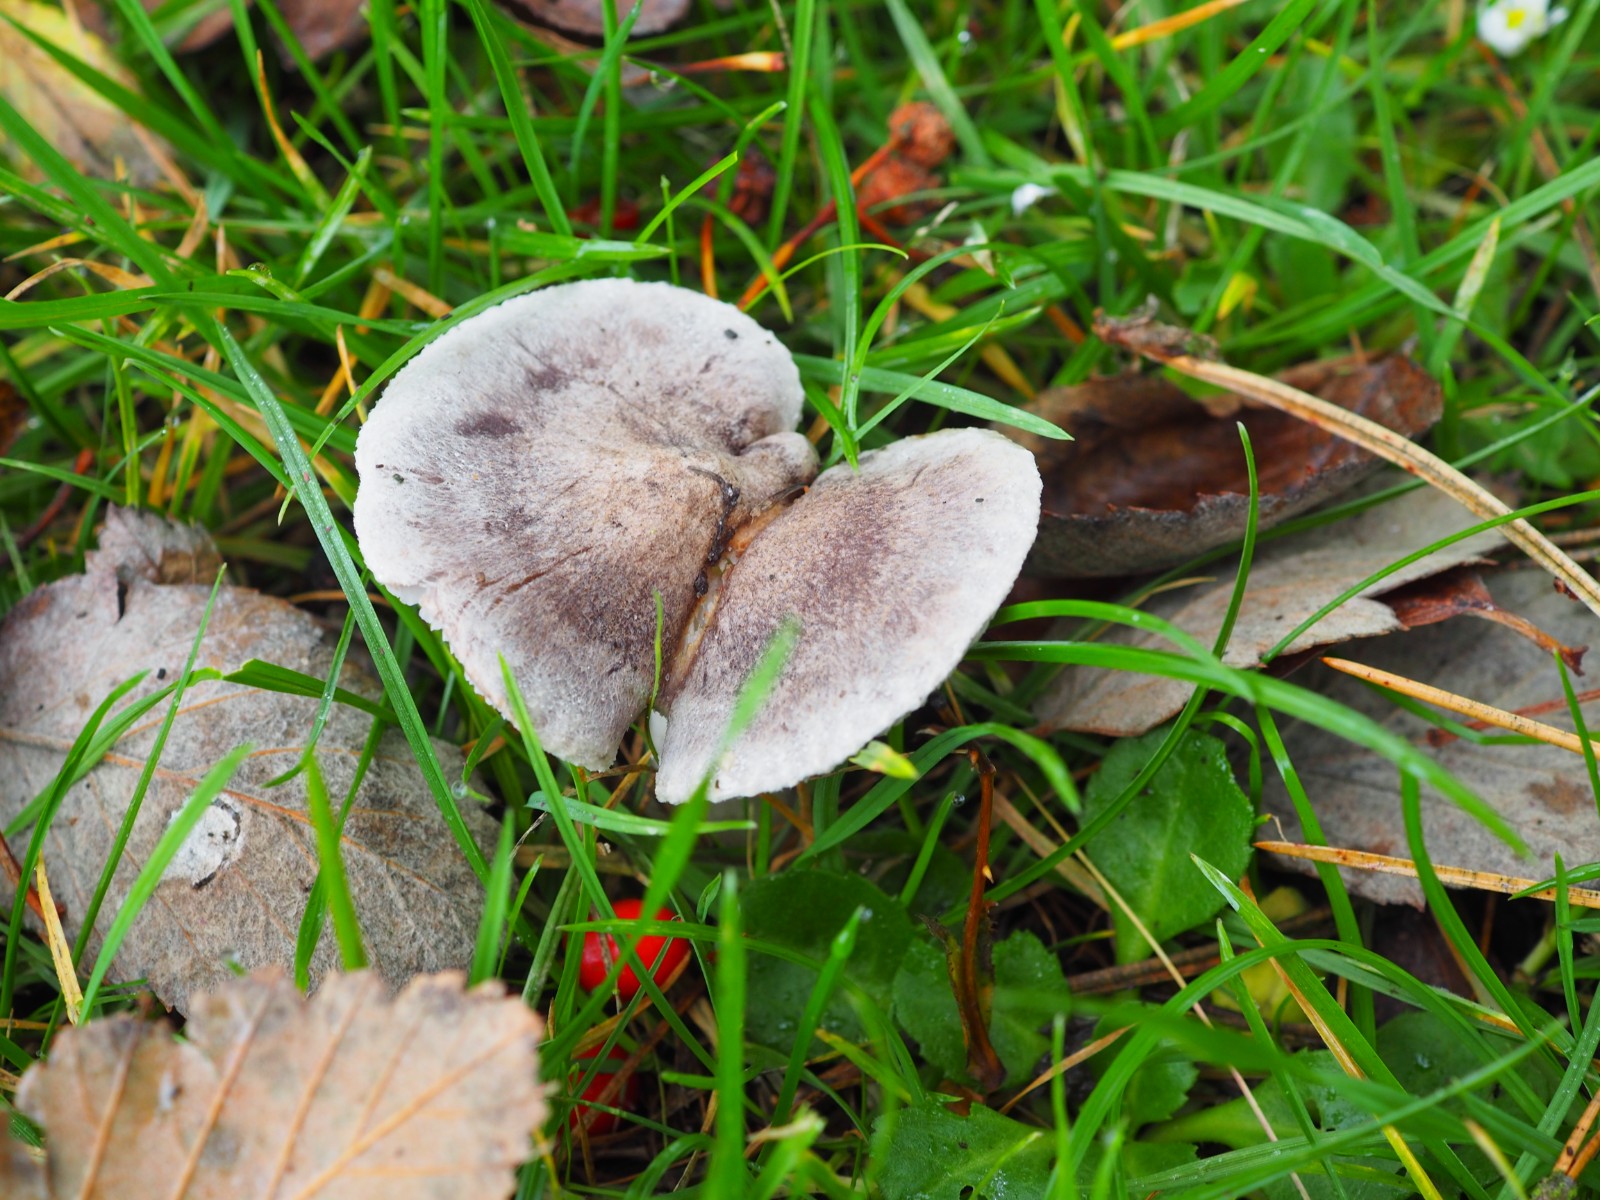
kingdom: Fungi
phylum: Basidiomycota
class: Agaricomycetes
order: Agaricales
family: Tricholomataceae
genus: Tricholoma
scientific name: Tricholoma terreum
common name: jordfarvet ridderhat
